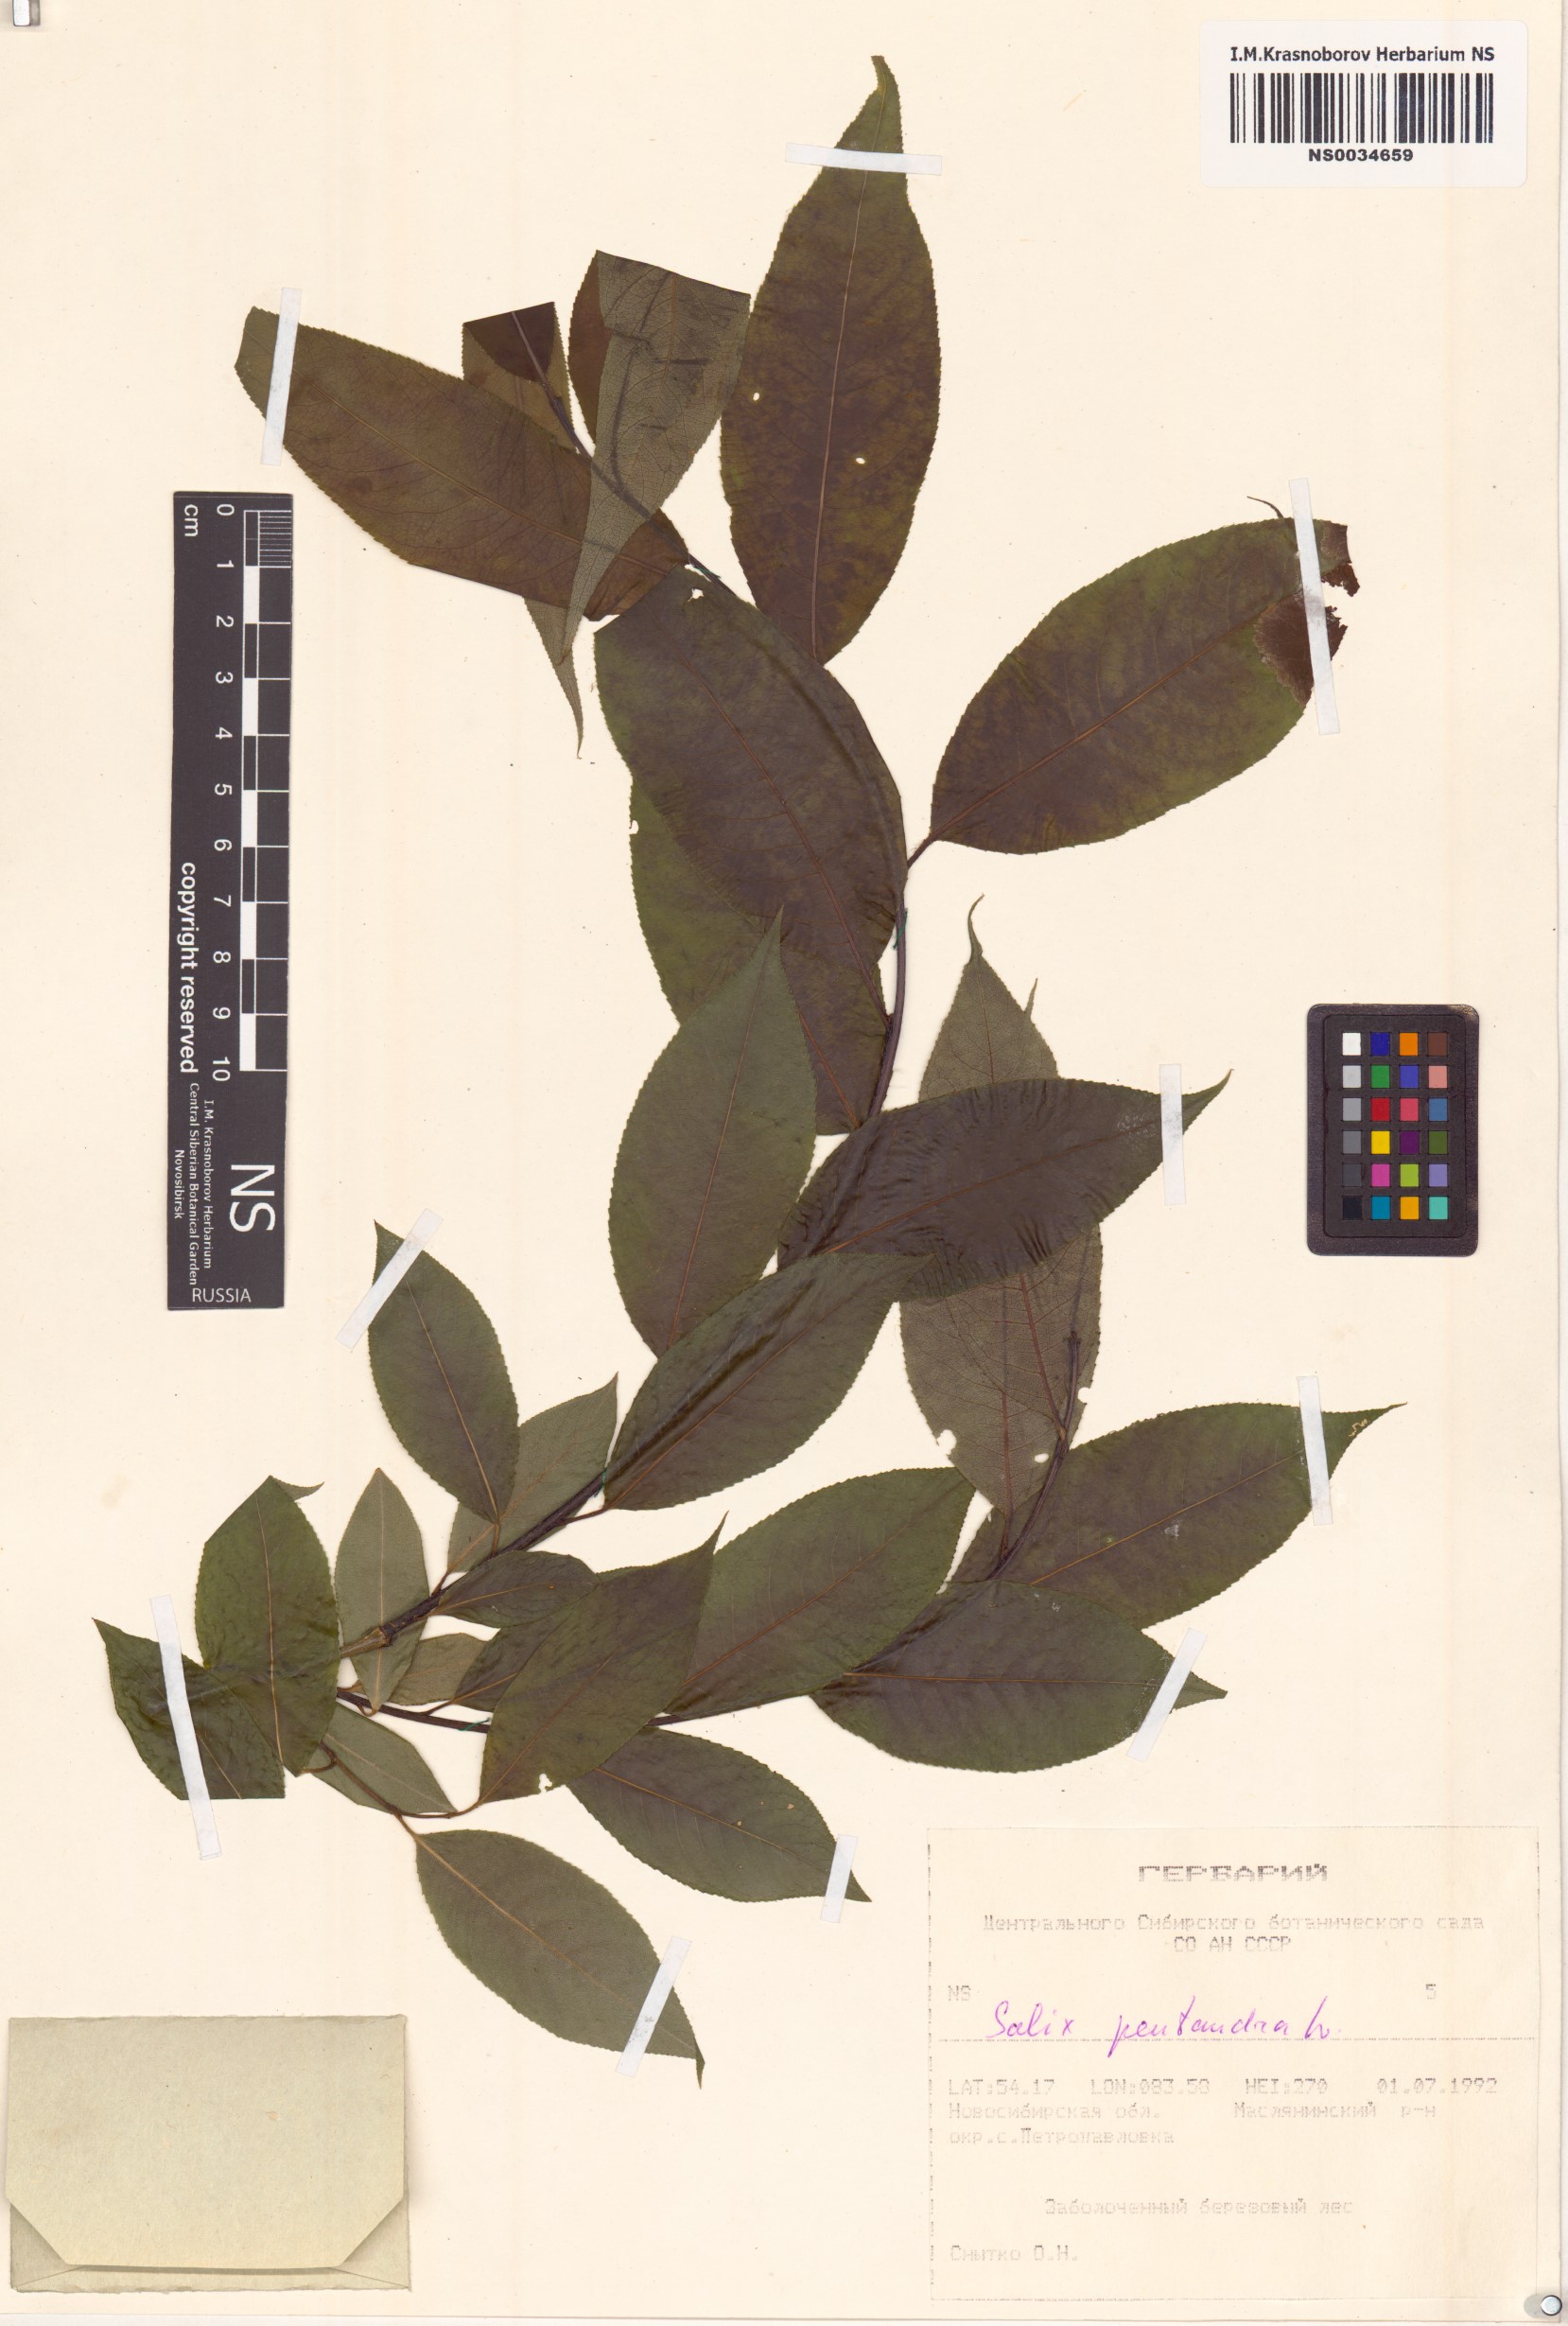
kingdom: Plantae
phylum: Tracheophyta
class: Magnoliopsida
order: Malpighiales
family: Salicaceae
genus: Salix
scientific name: Salix pentandra
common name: Bay willow
